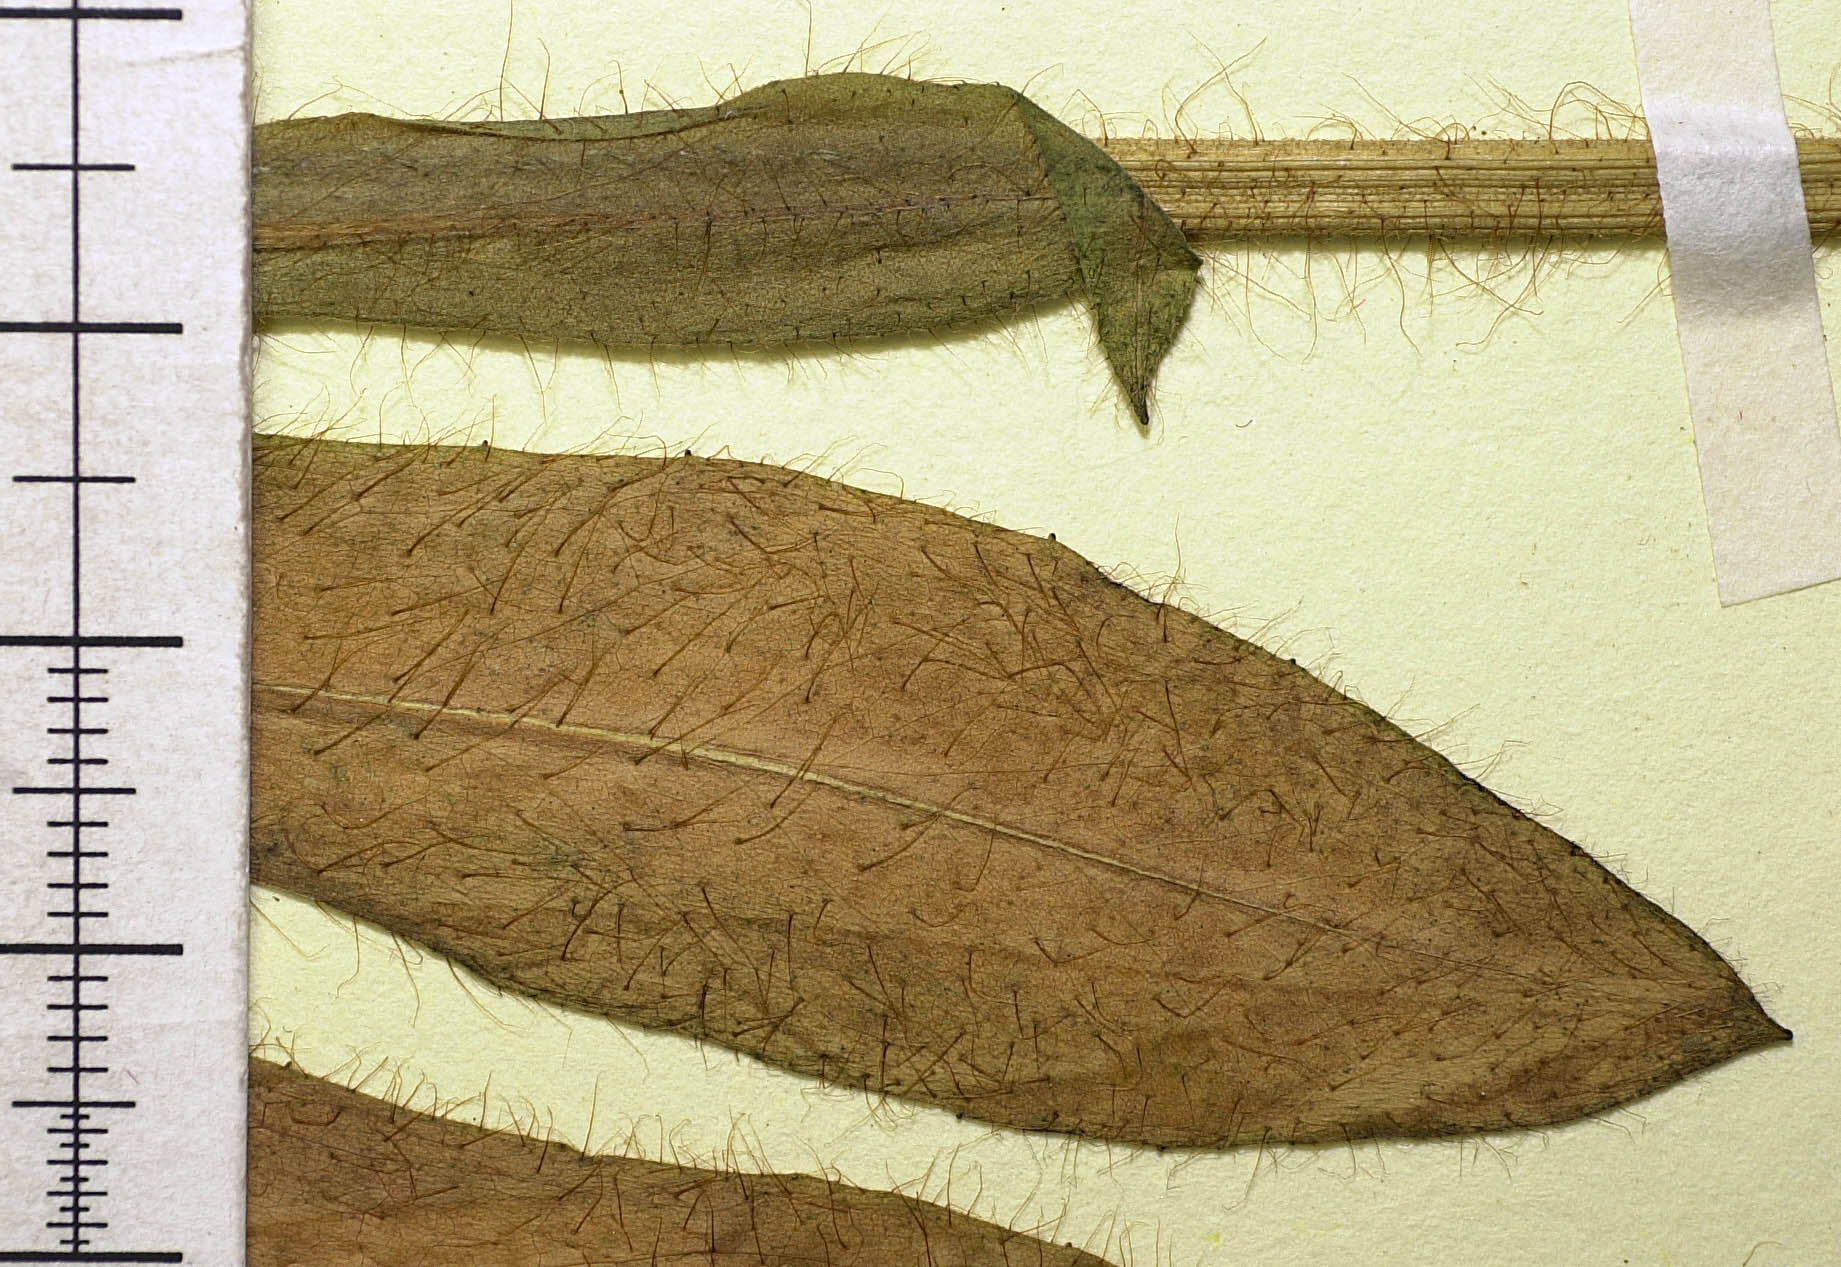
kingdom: Plantae
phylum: Tracheophyta
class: Magnoliopsida
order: Asterales
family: Asteraceae
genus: Pilosella
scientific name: Pilosella prussica
